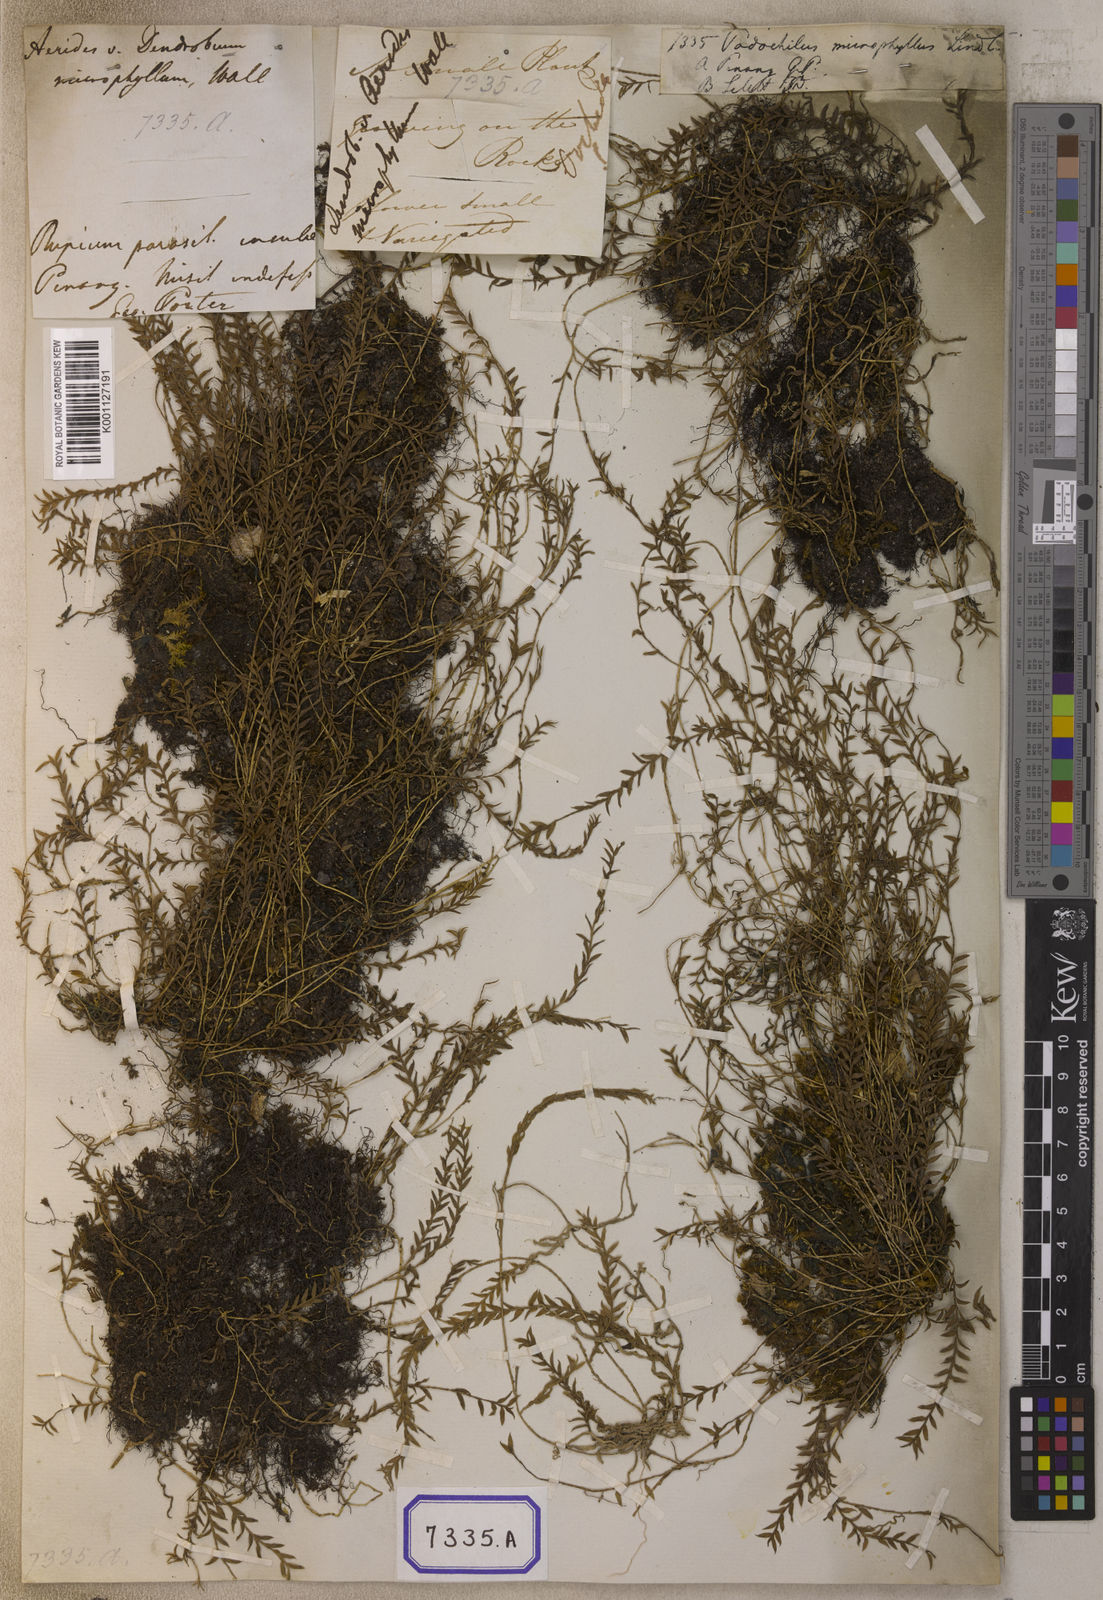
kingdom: Plantae
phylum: Tracheophyta
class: Liliopsida
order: Asparagales
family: Orchidaceae
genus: Podochilus
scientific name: Podochilus microphyllus
